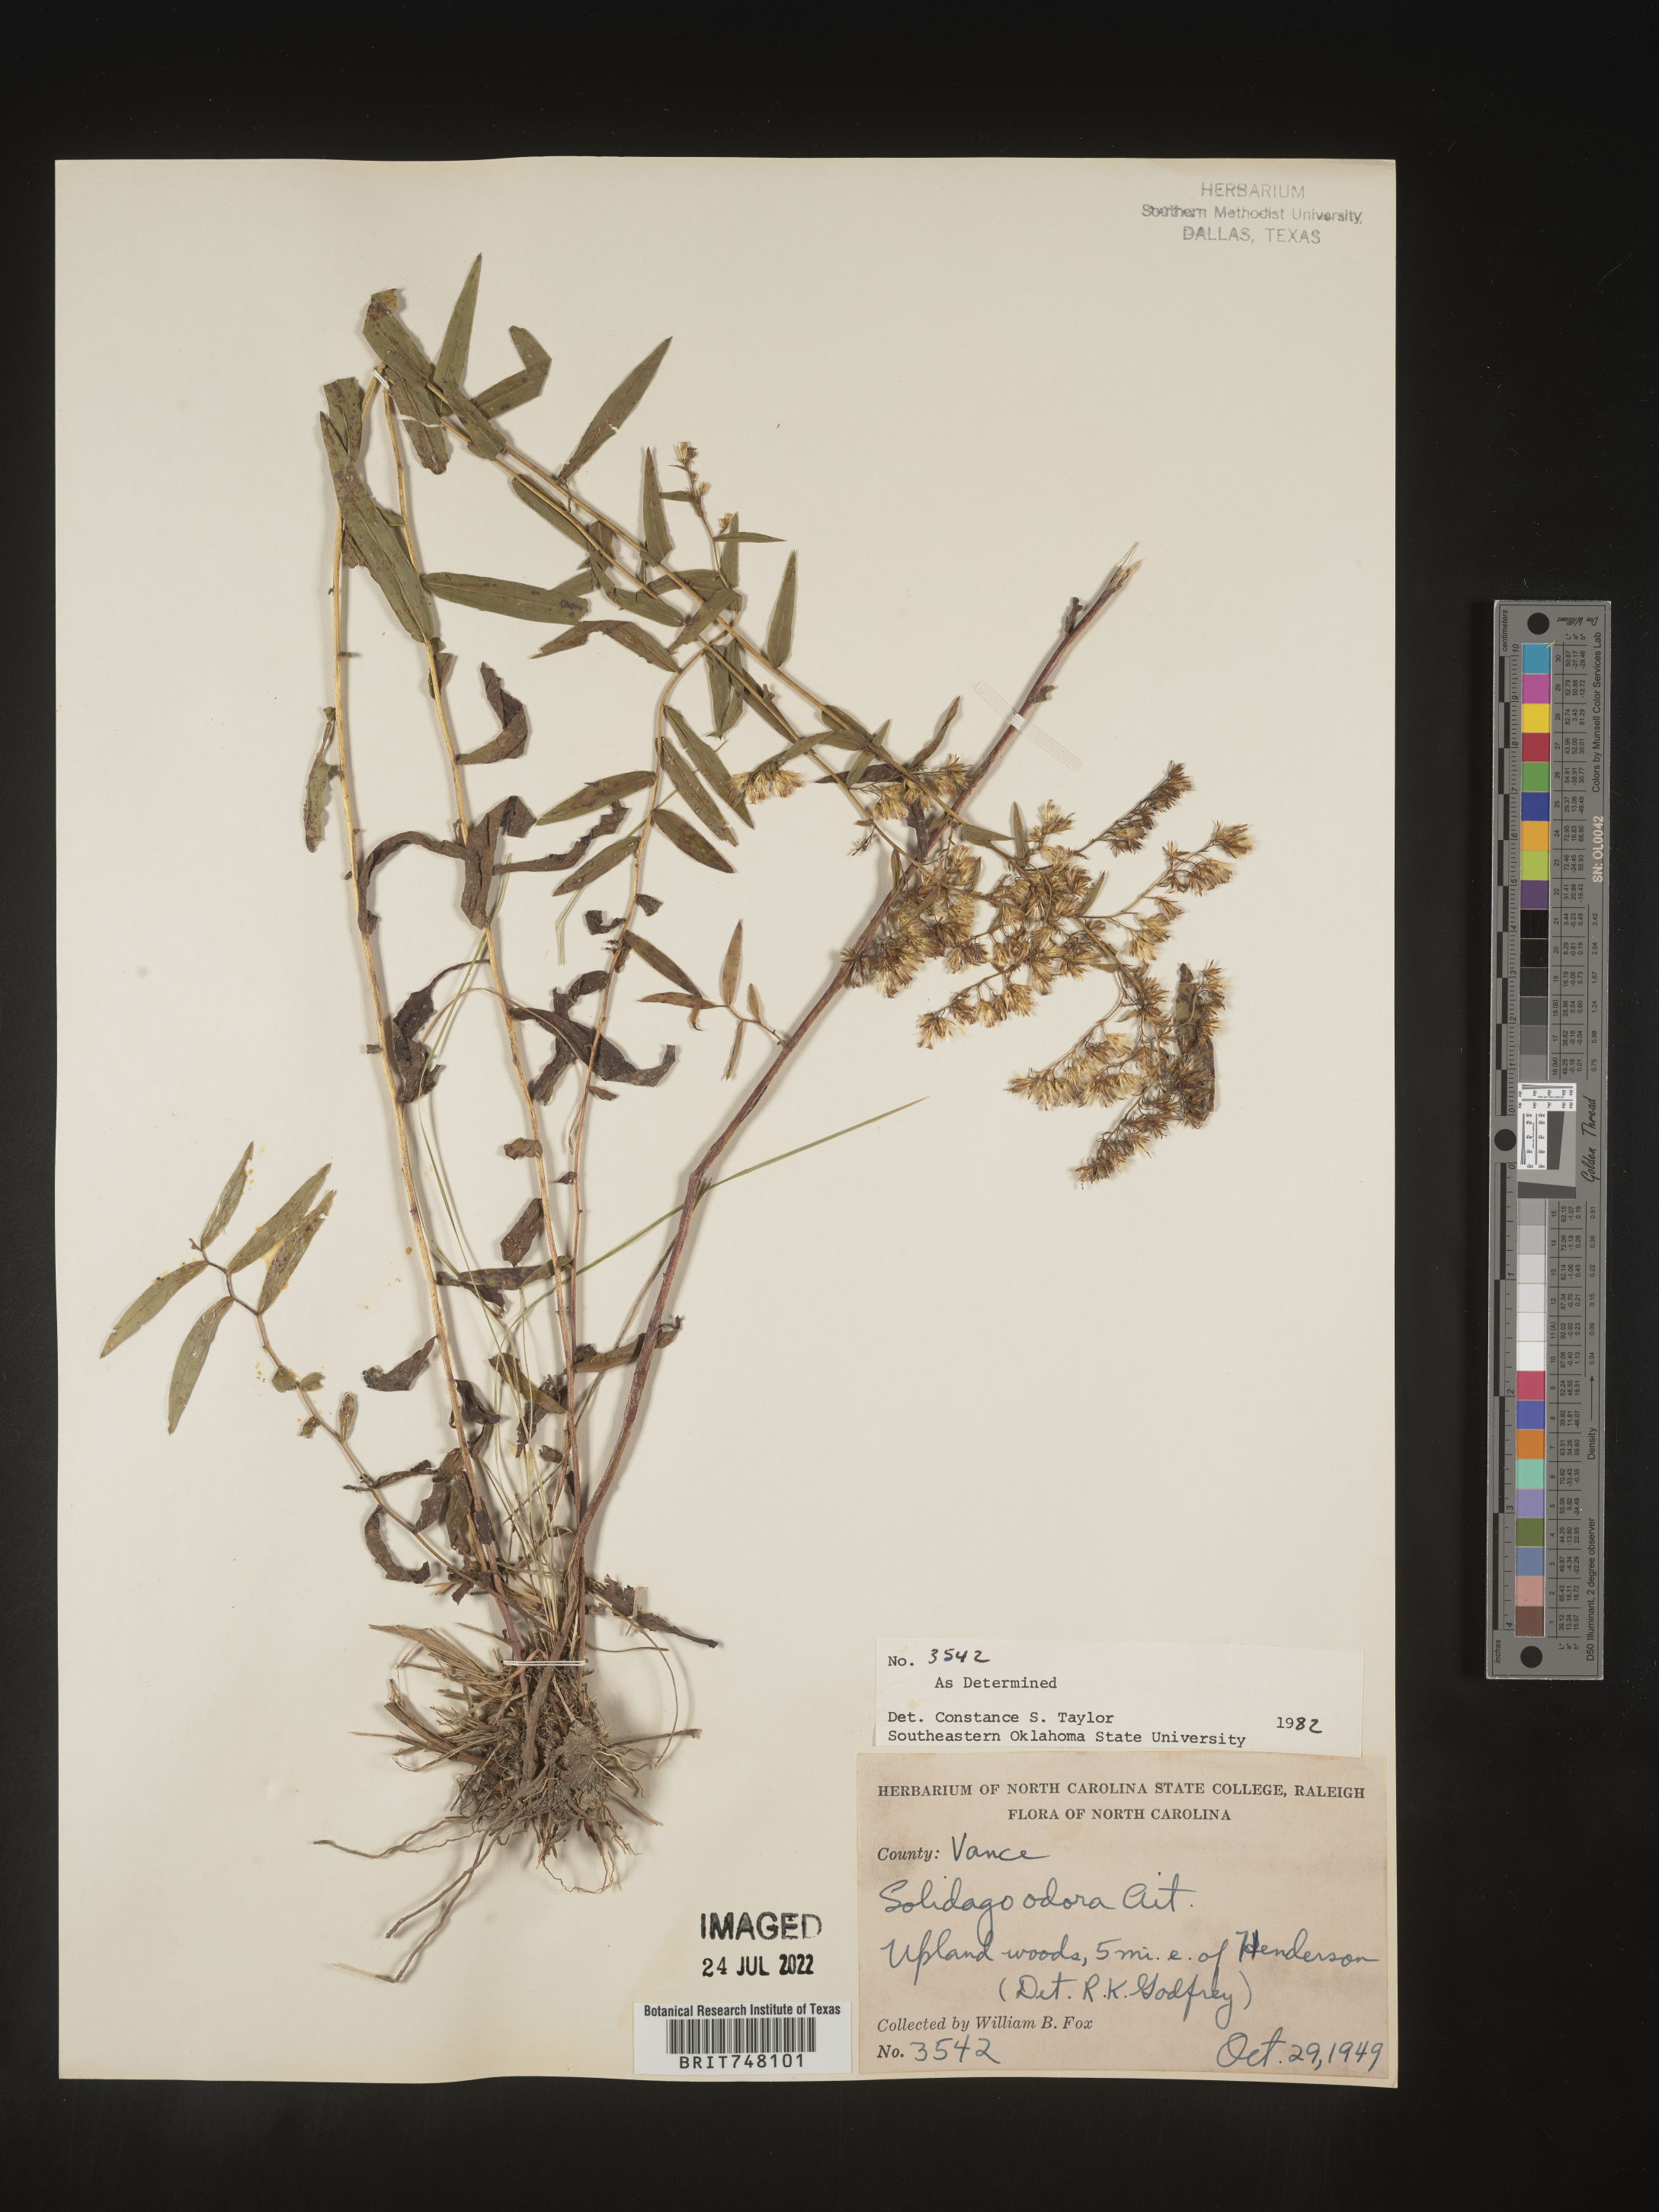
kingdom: Plantae
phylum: Tracheophyta
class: Magnoliopsida
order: Asterales
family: Asteraceae
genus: Solidago
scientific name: Solidago odora
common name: Anise-scented goldenrod
